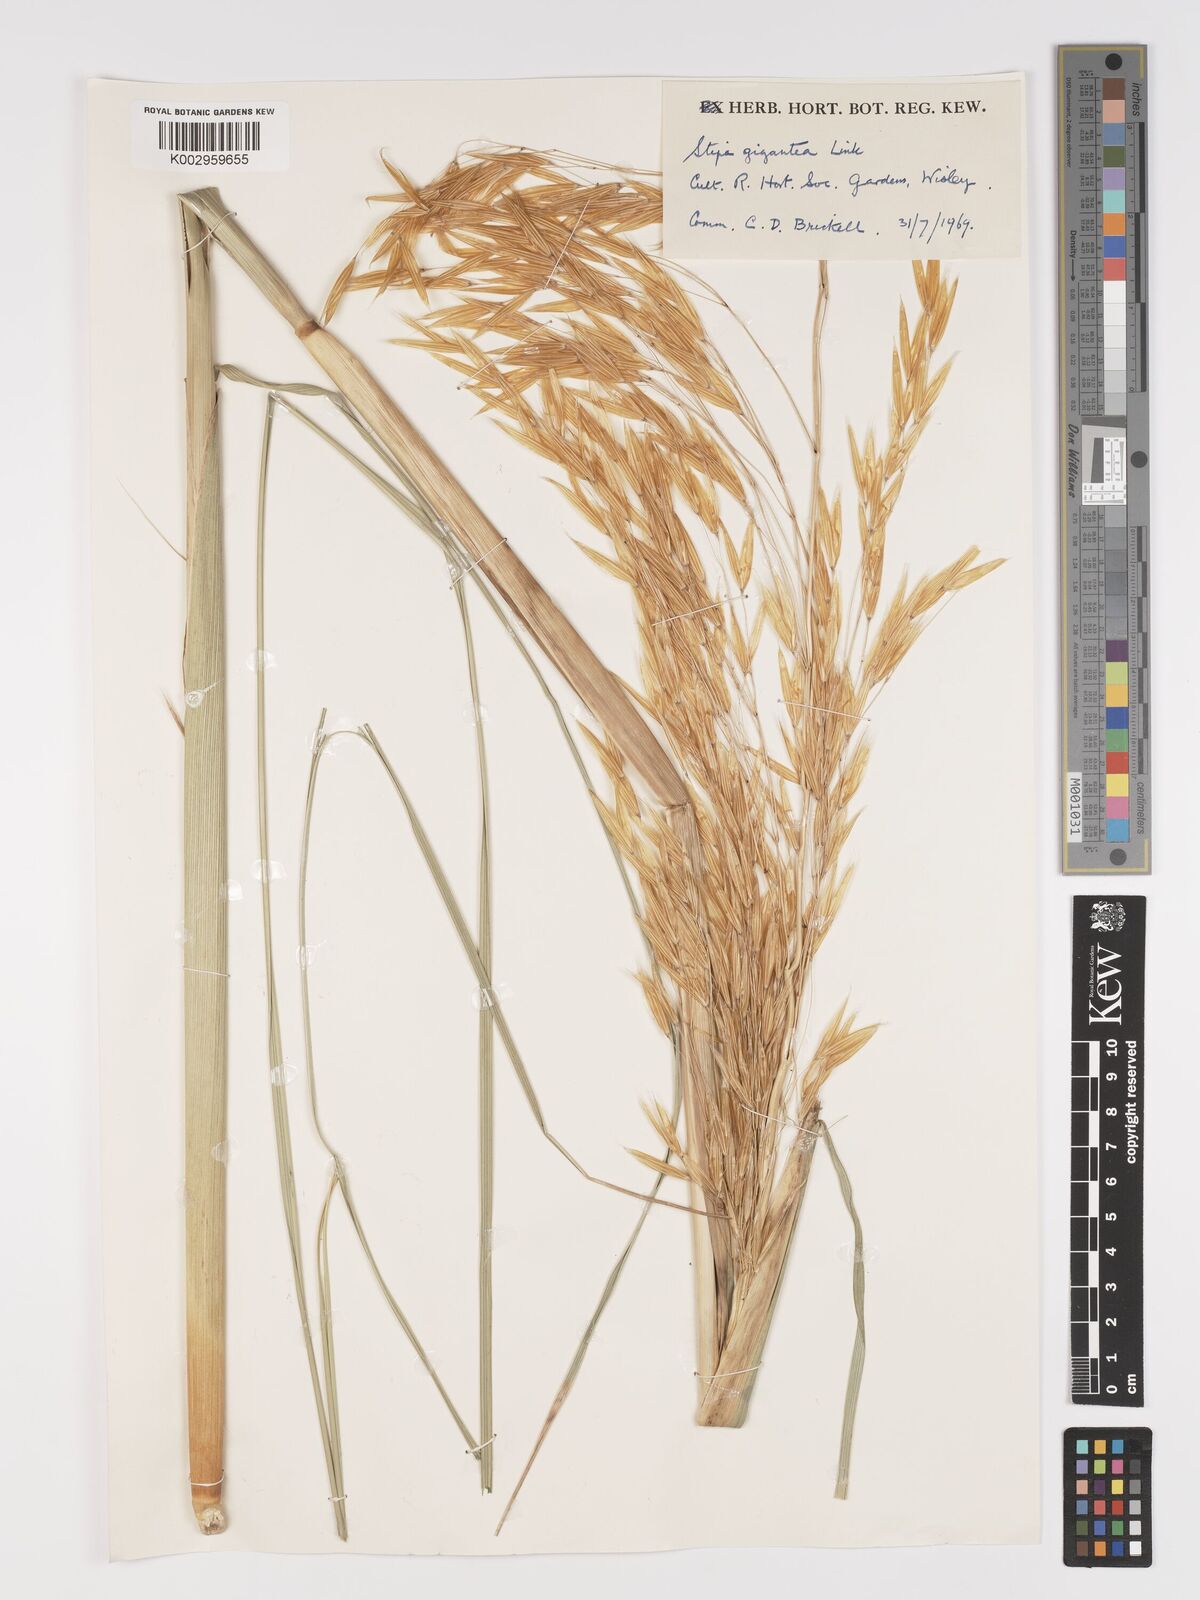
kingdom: Plantae
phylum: Tracheophyta
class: Liliopsida
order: Poales
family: Poaceae
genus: Celtica
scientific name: Celtica gigantea
